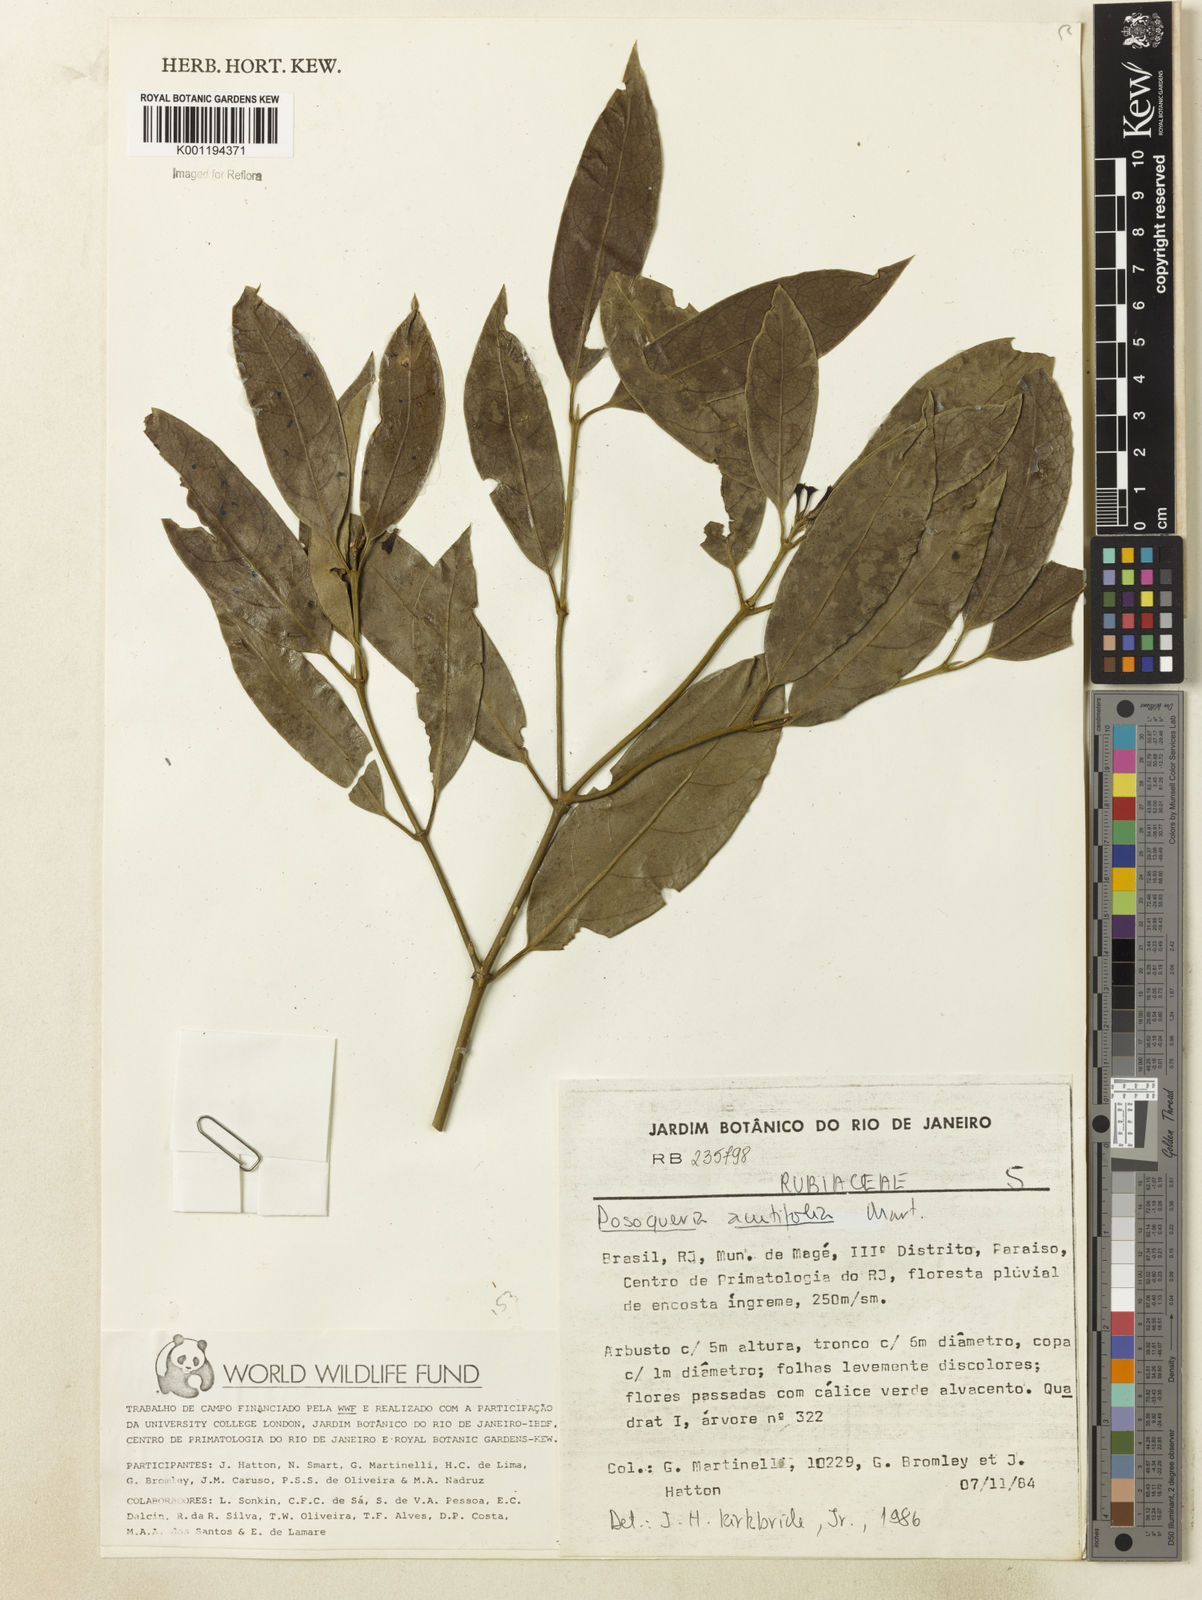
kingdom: Plantae
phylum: Tracheophyta
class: Magnoliopsida
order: Gentianales
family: Rubiaceae
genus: Posoqueria
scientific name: Posoqueria acutifolia
